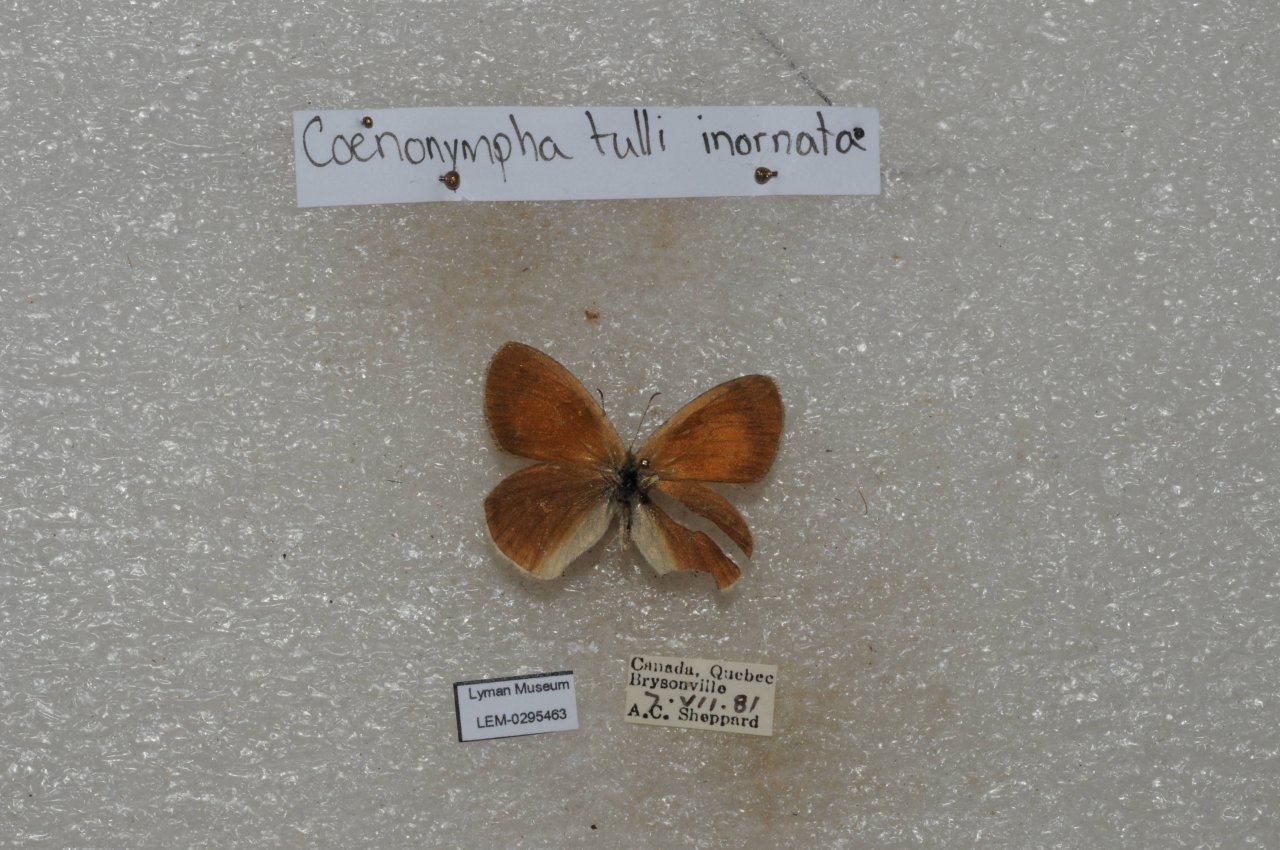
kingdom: Animalia
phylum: Arthropoda
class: Insecta
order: Lepidoptera
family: Nymphalidae
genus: Coenonympha
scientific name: Coenonympha tullia
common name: Large Heath
